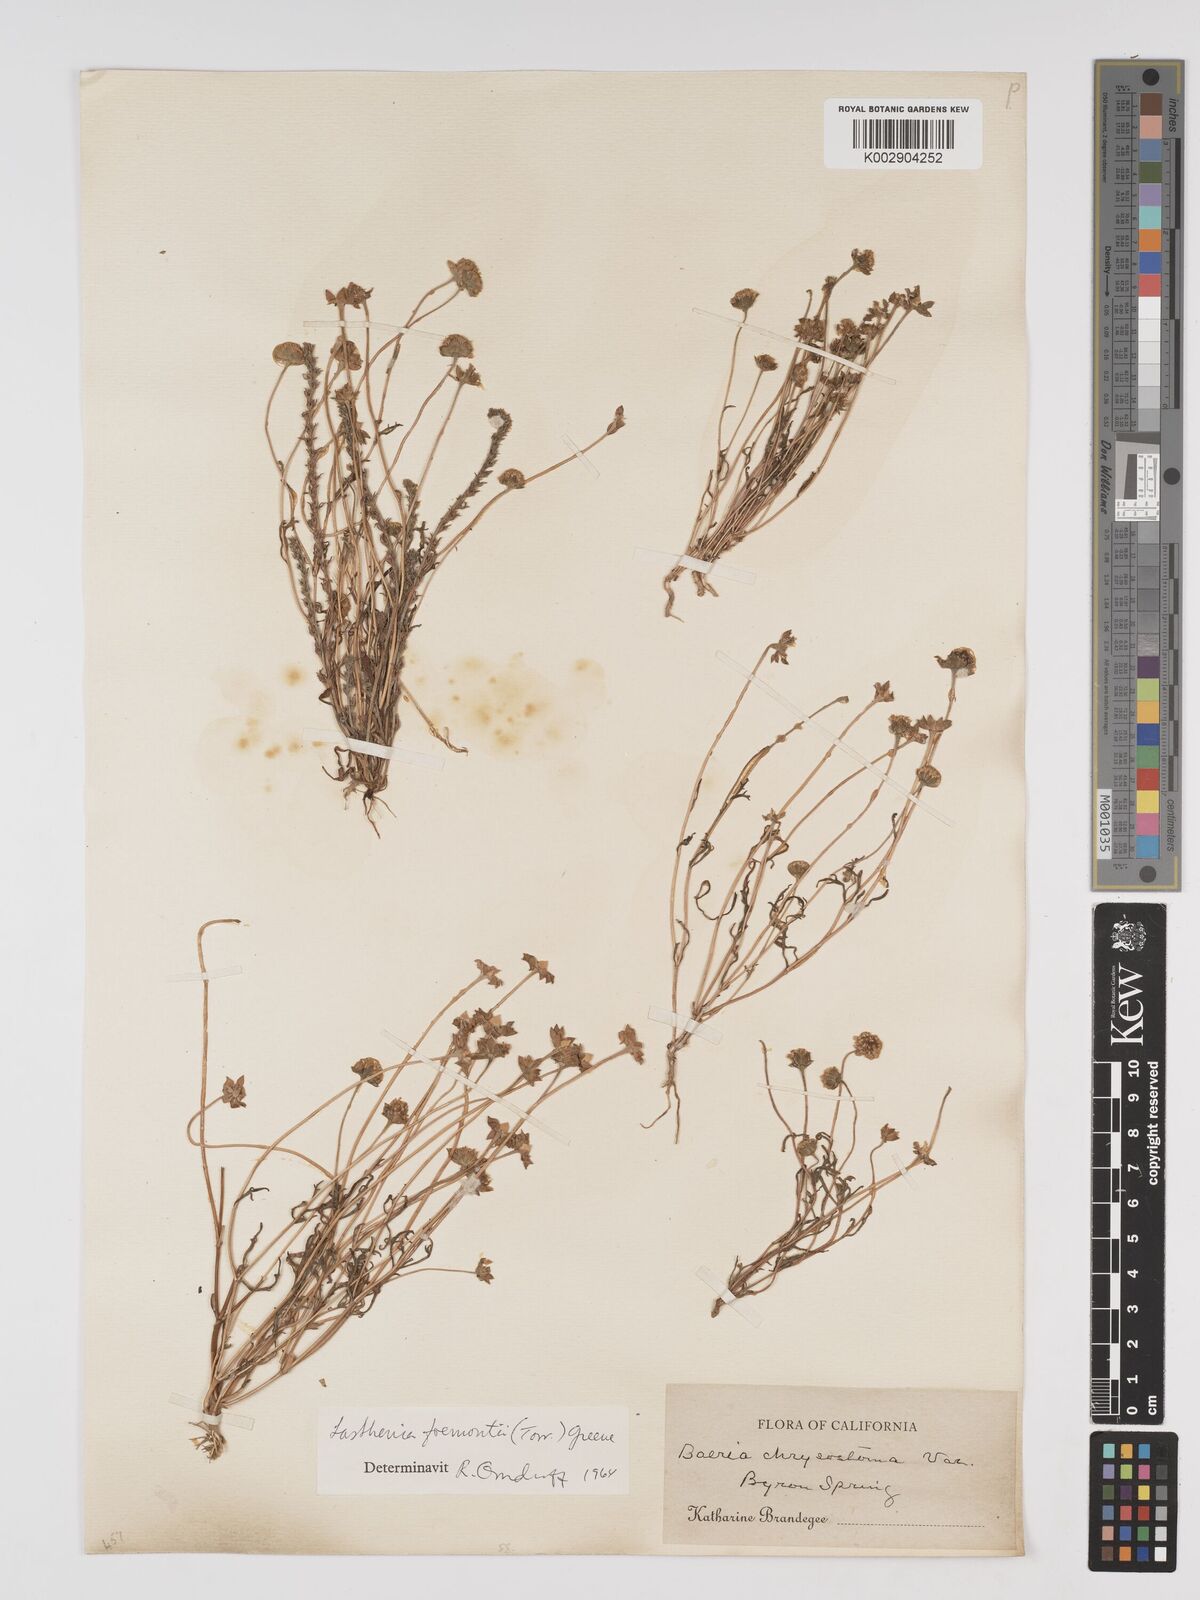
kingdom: Plantae
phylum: Tracheophyta
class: Magnoliopsida
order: Asterales
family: Asteraceae
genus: Lasthenia
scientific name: Lasthenia fremontii
